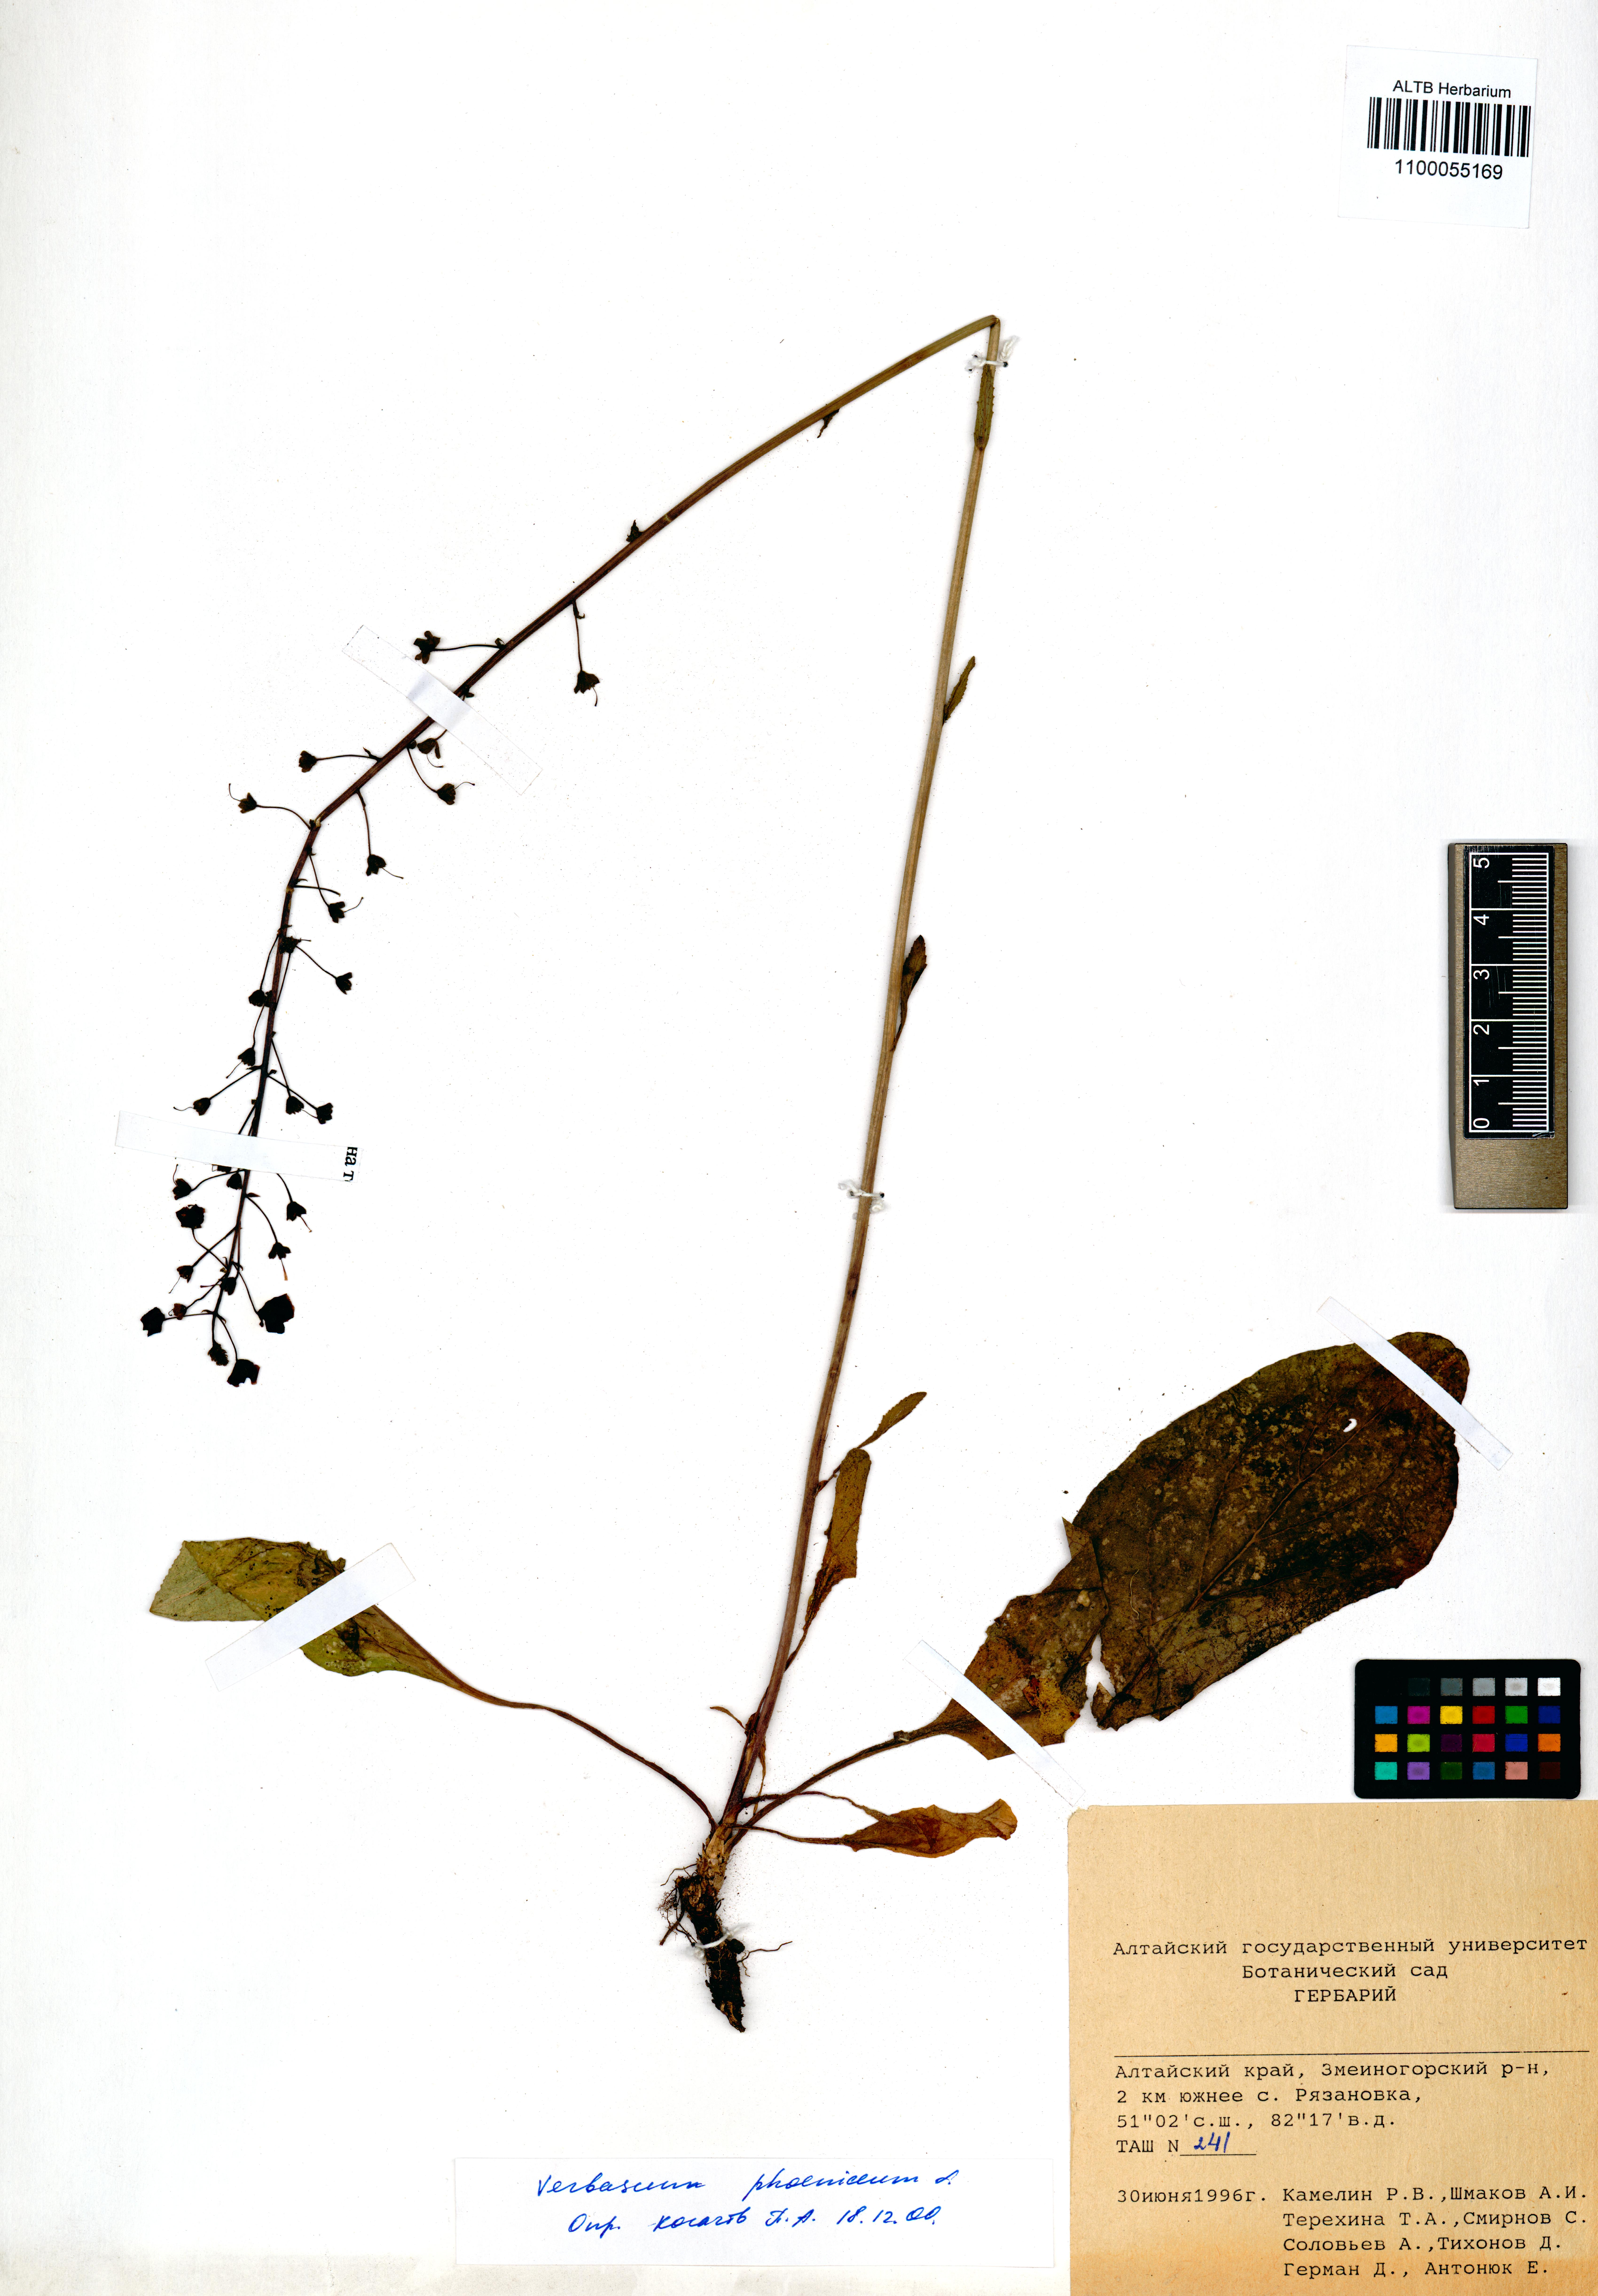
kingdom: Plantae
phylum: Tracheophyta
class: Magnoliopsida
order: Lamiales
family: Scrophulariaceae
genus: Verbascum
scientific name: Verbascum phoeniceum
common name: Purple mullein
